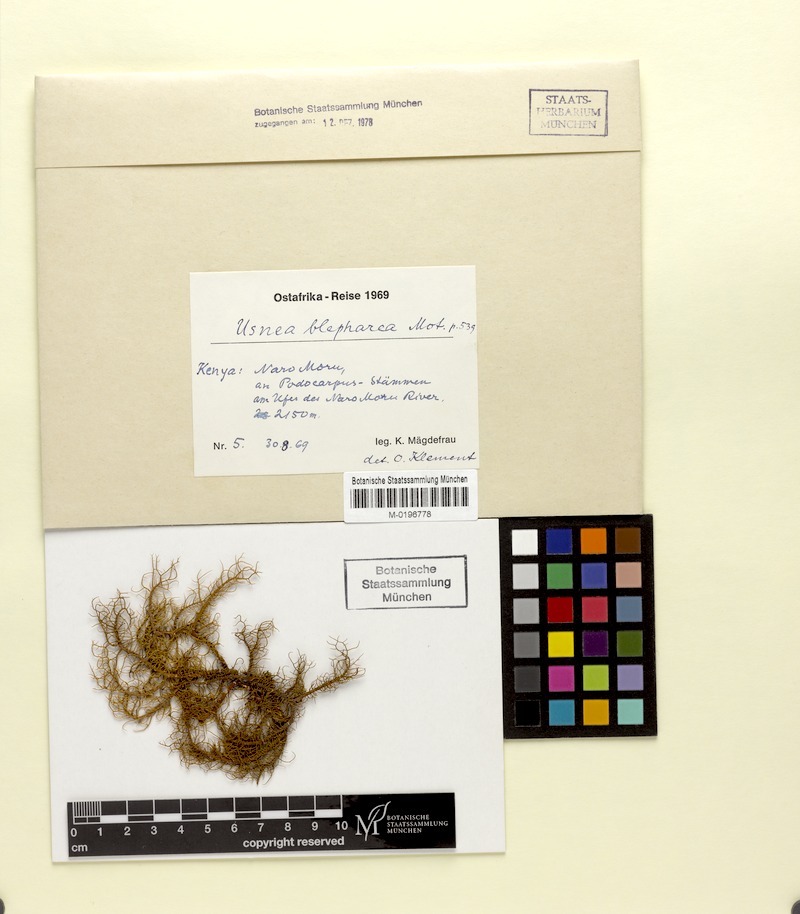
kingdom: Fungi
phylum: Ascomycota
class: Lecanoromycetes
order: Lecanorales
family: Parmeliaceae
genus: Usnea
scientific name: Usnea blepharea
